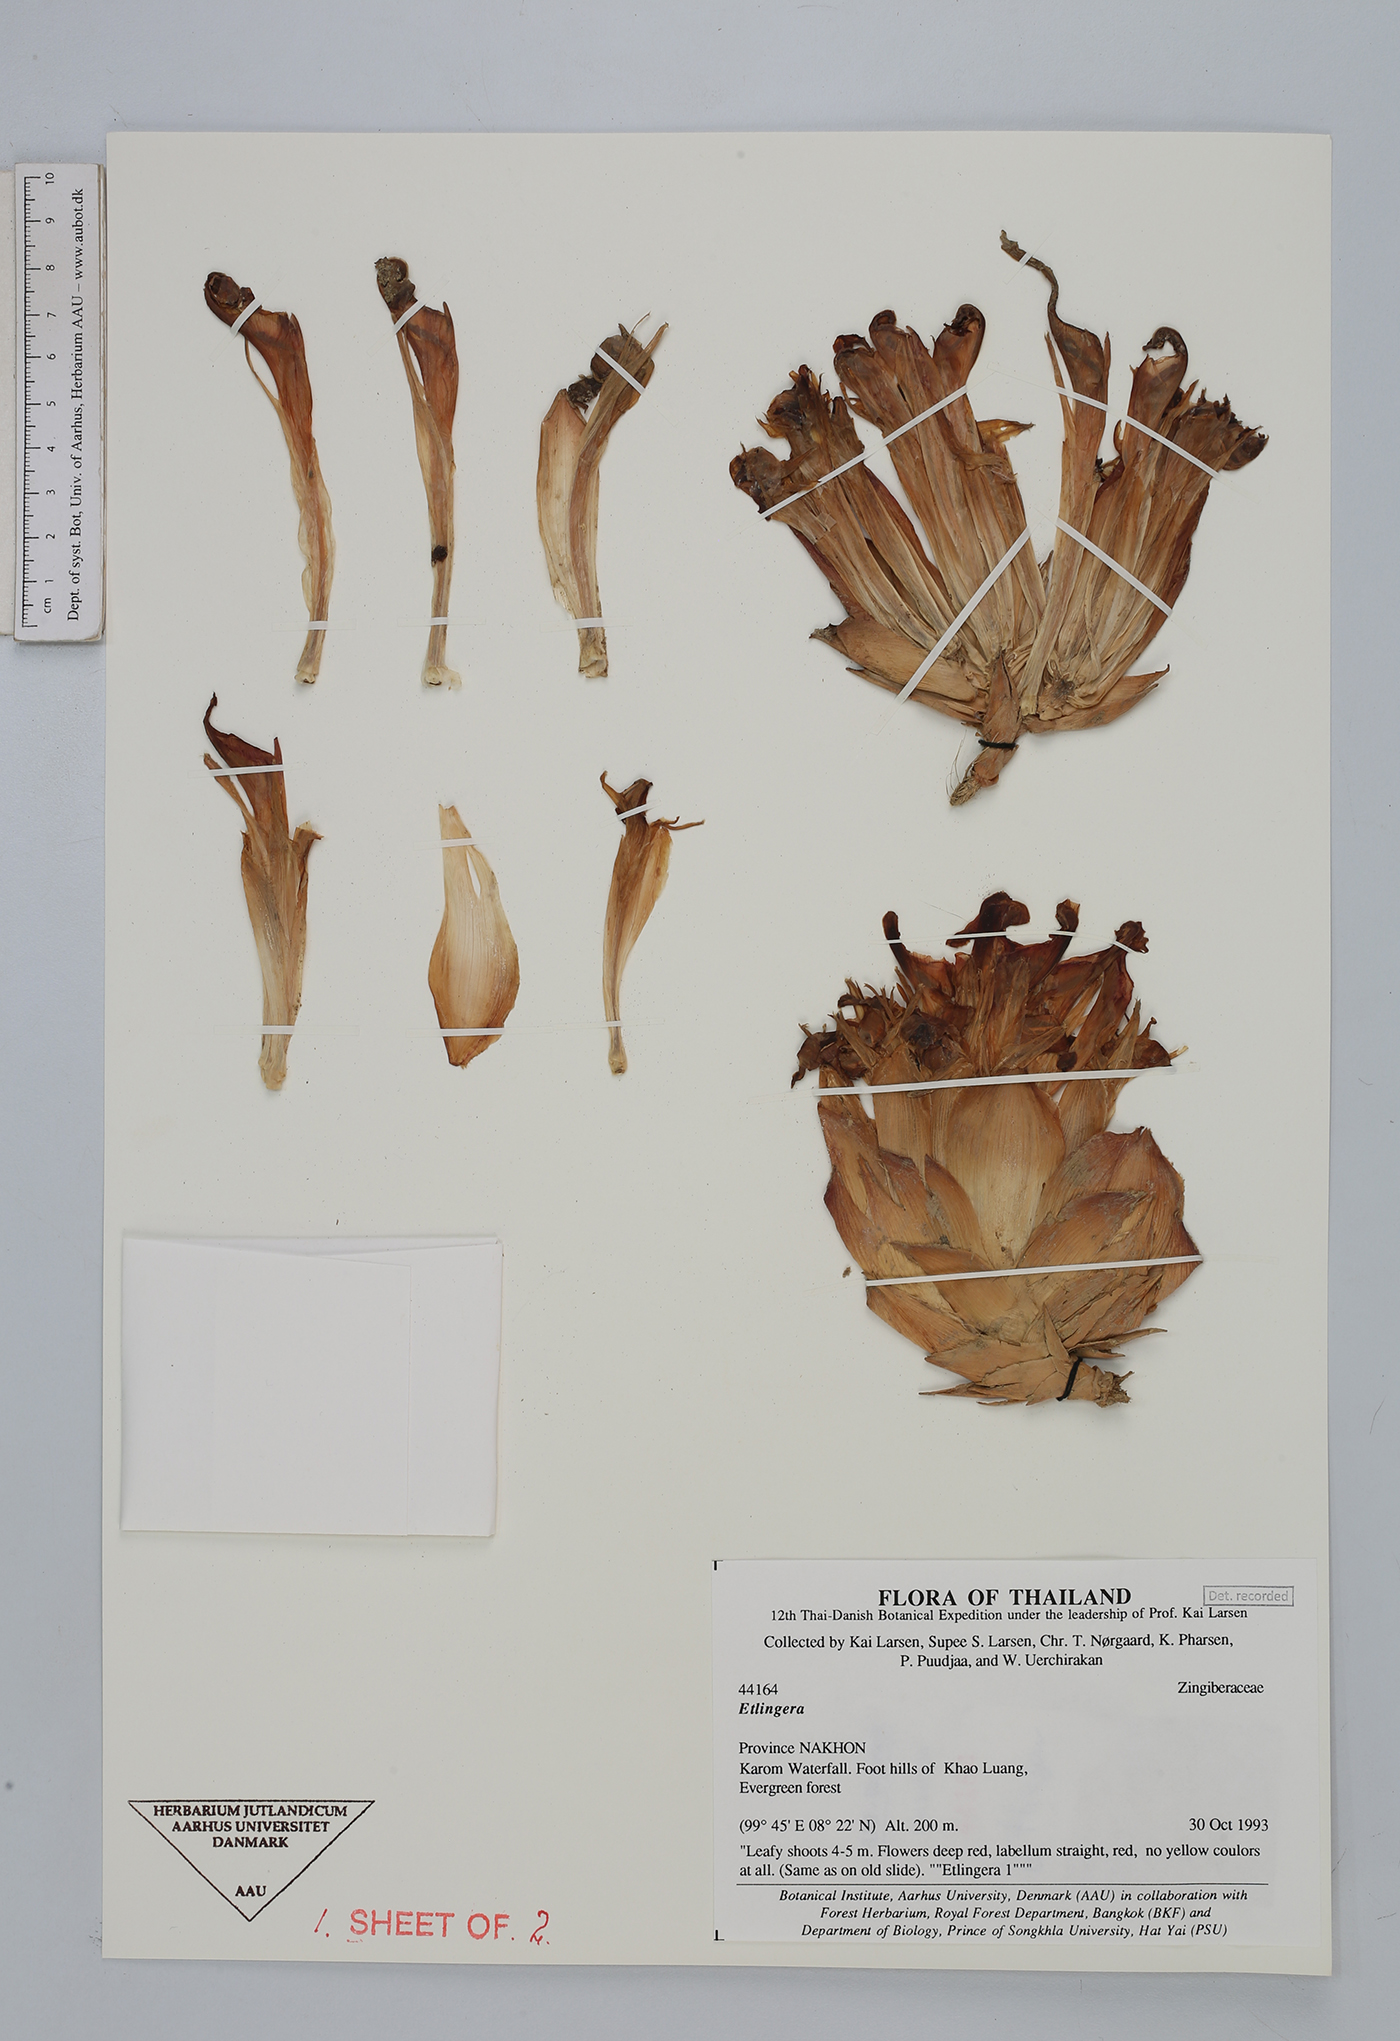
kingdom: Plantae
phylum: Tracheophyta
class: Liliopsida
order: Zingiberales
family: Zingiberaceae
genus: Etlingera
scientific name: Etlingera
